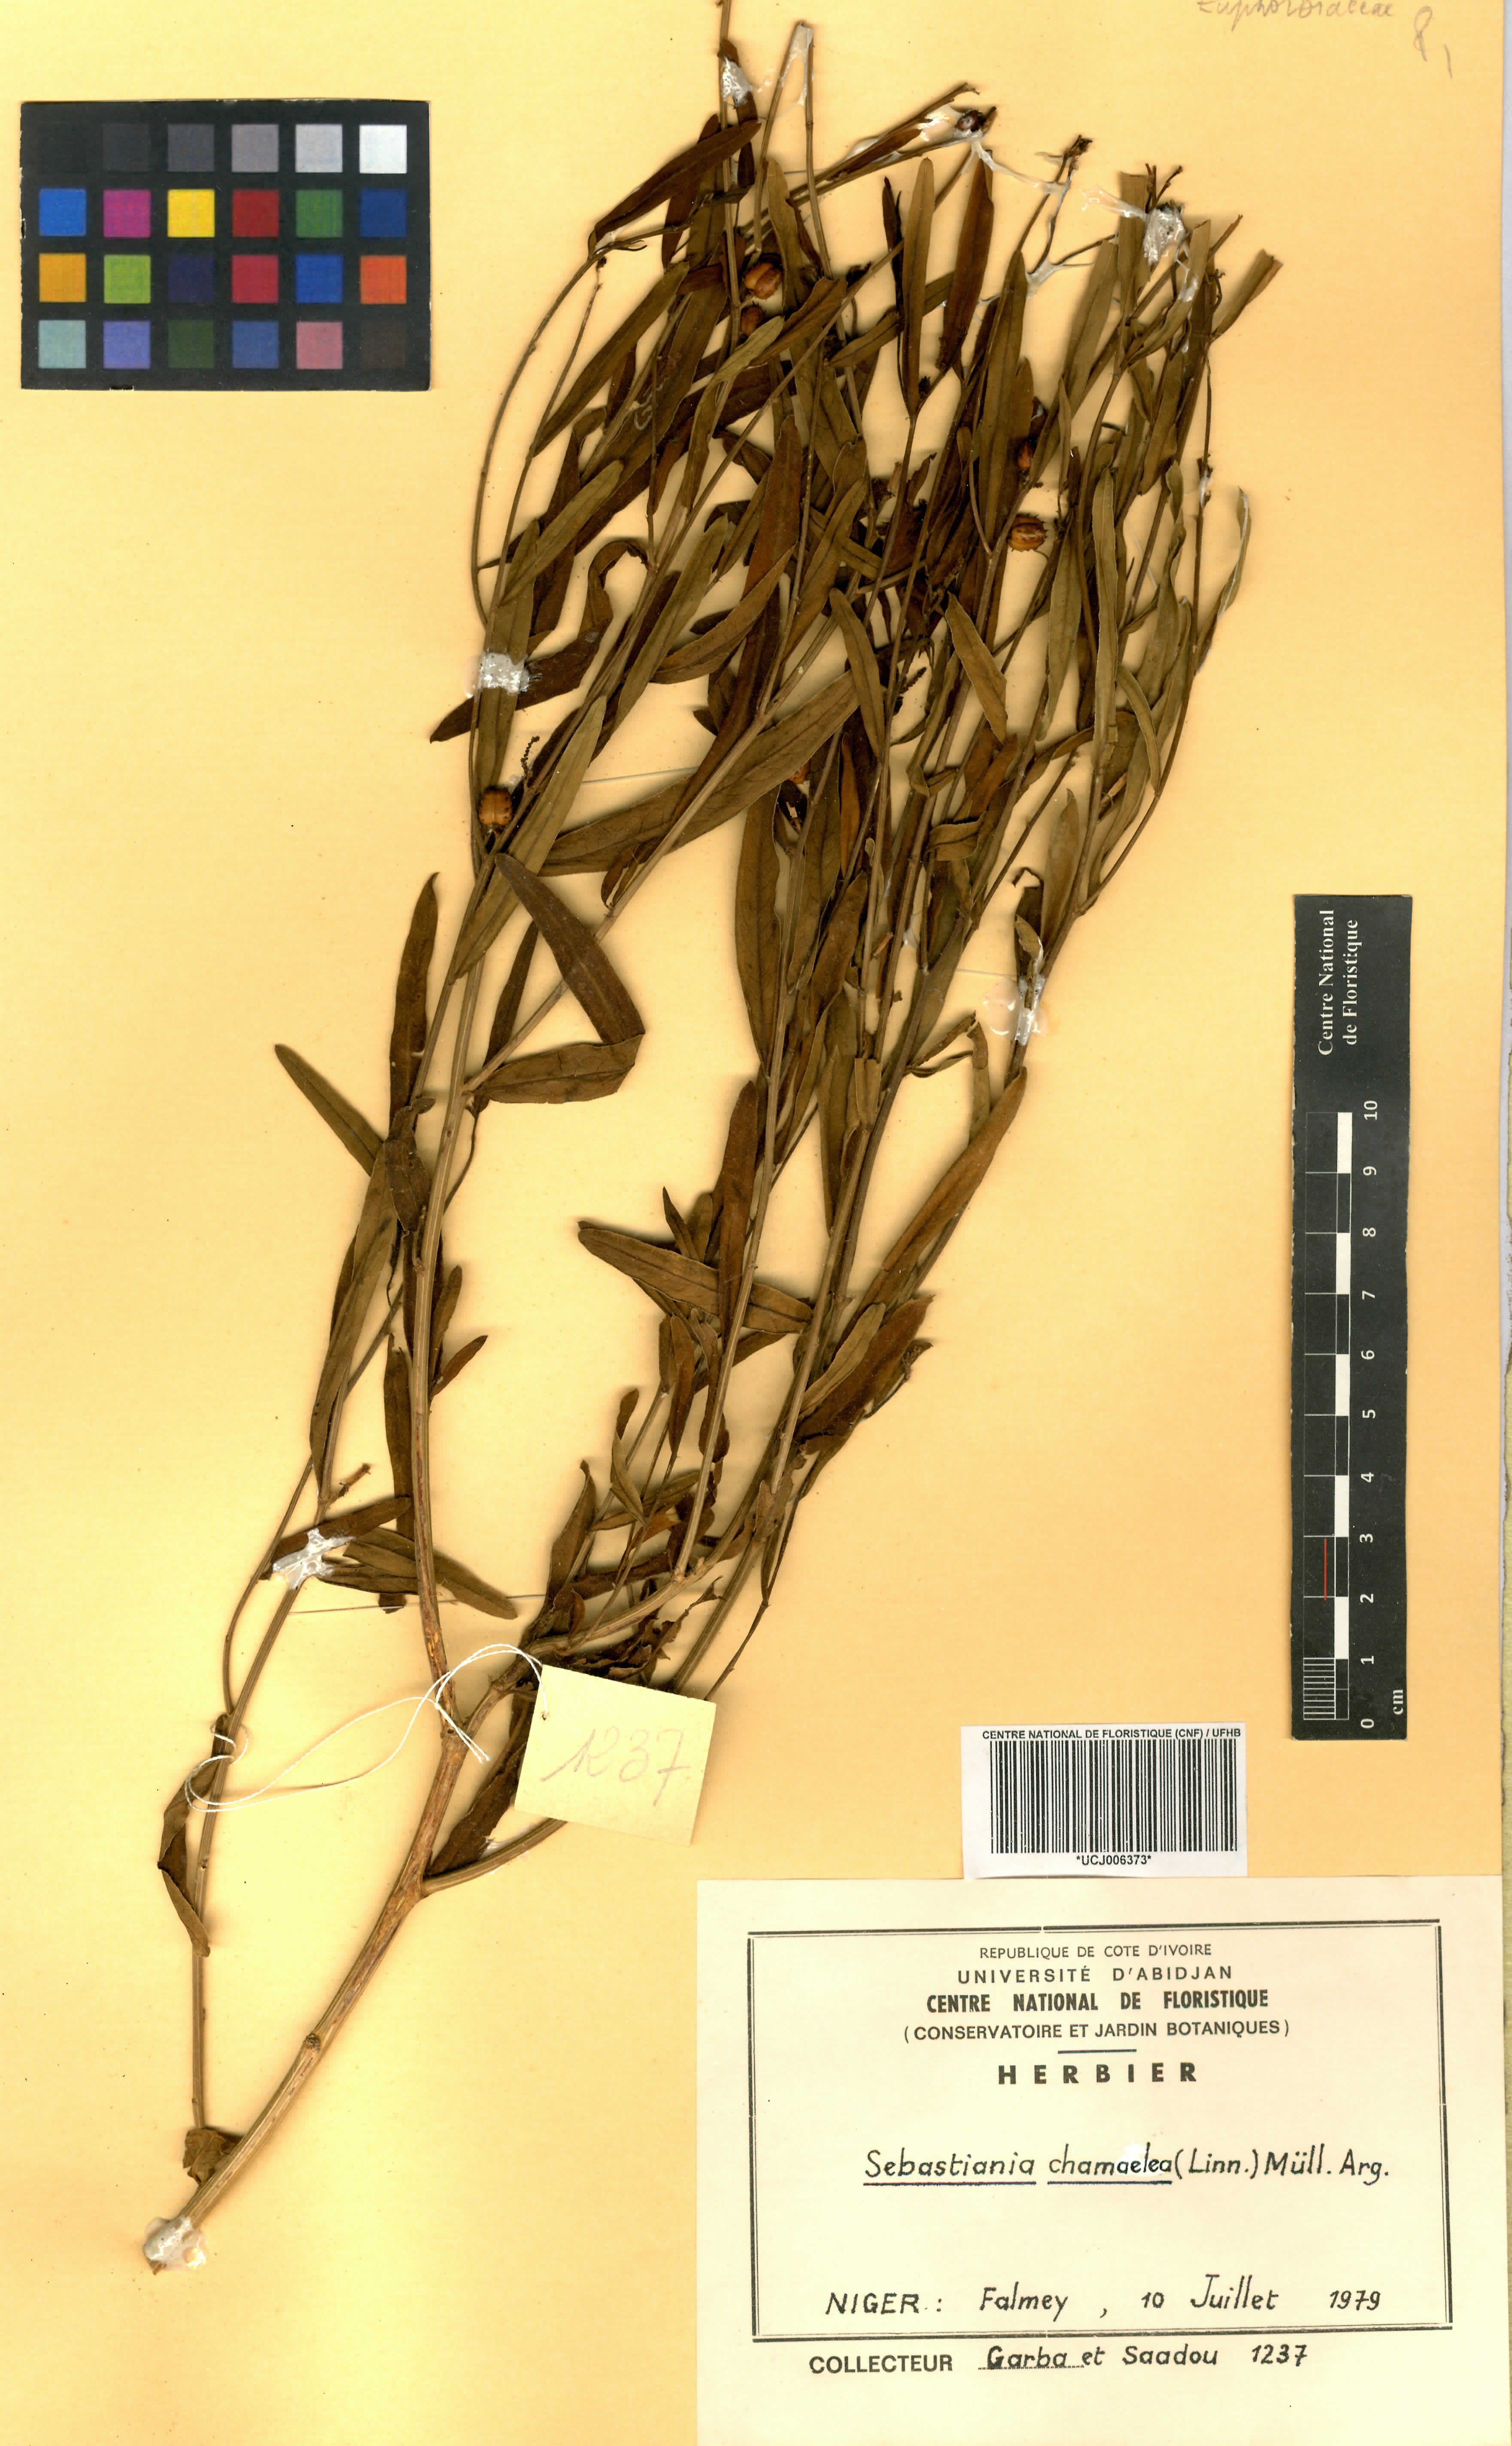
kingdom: Plantae
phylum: Tracheophyta
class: Magnoliopsida
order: Malpighiales
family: Euphorbiaceae
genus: Microstachys
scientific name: Microstachys chamaelea
